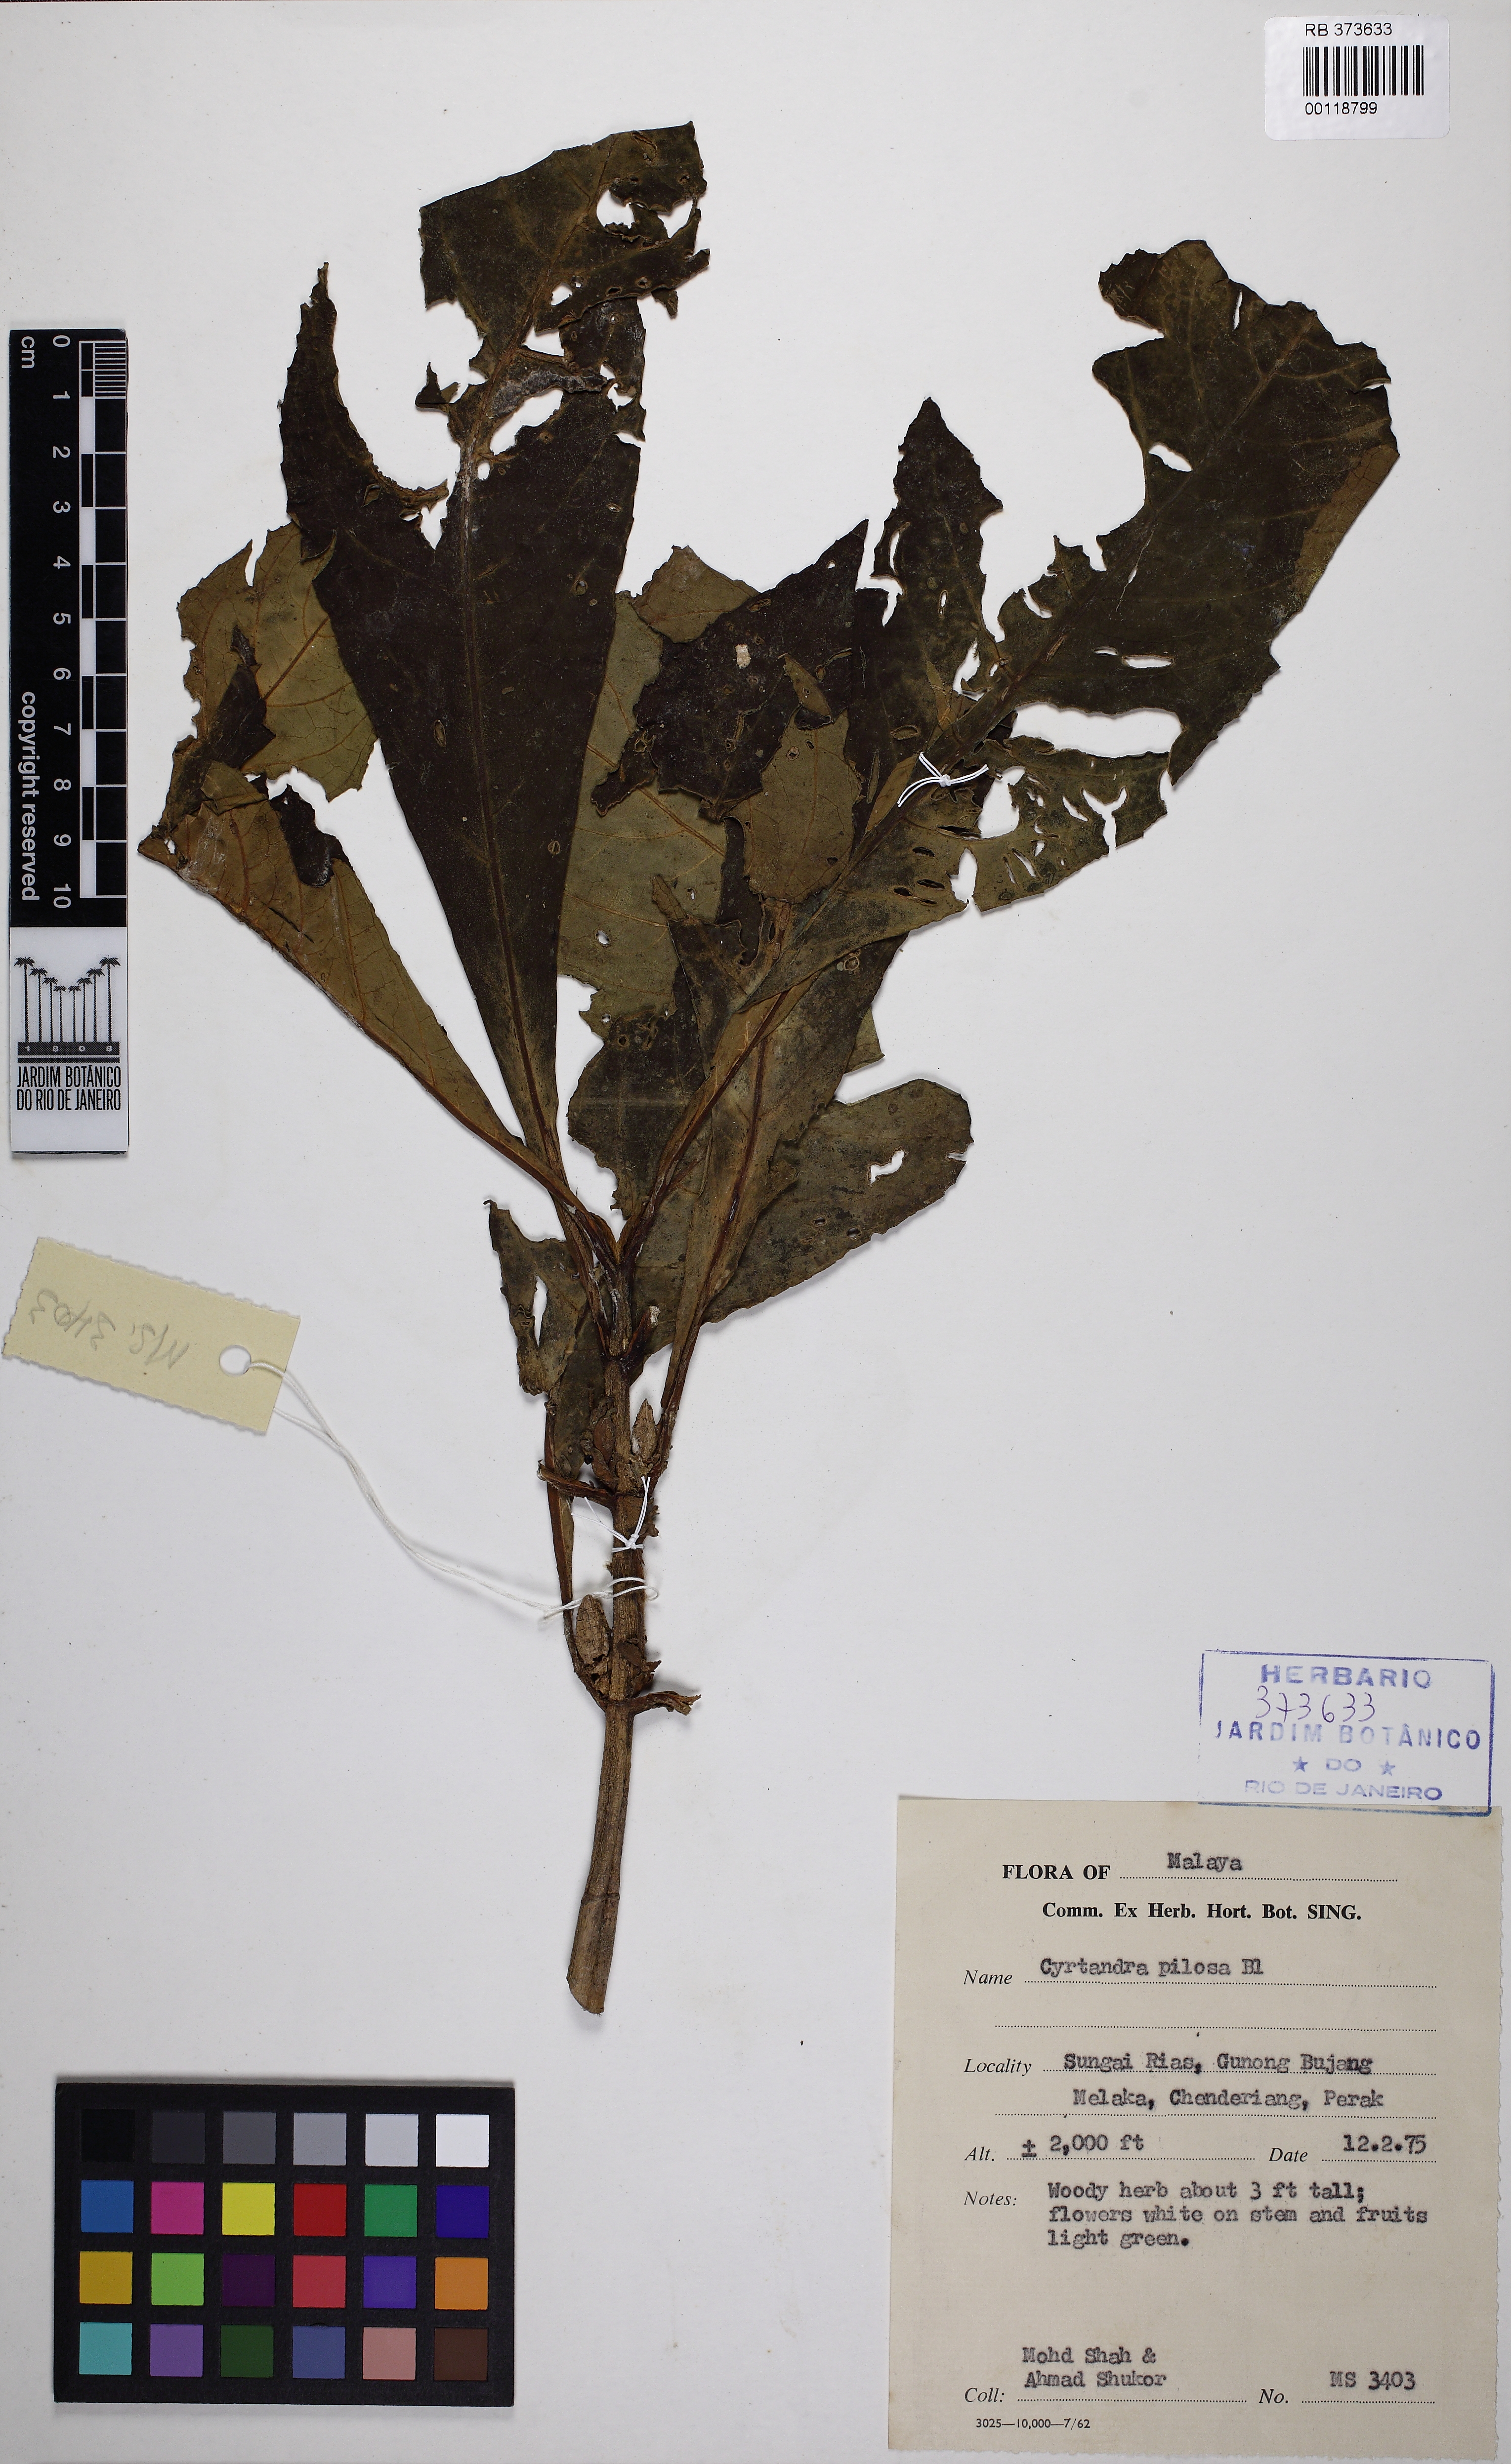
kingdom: Plantae
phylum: Tracheophyta
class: Magnoliopsida
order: Lamiales
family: Gesneriaceae
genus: Cyrtandra
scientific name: Cyrtandra pilosa
